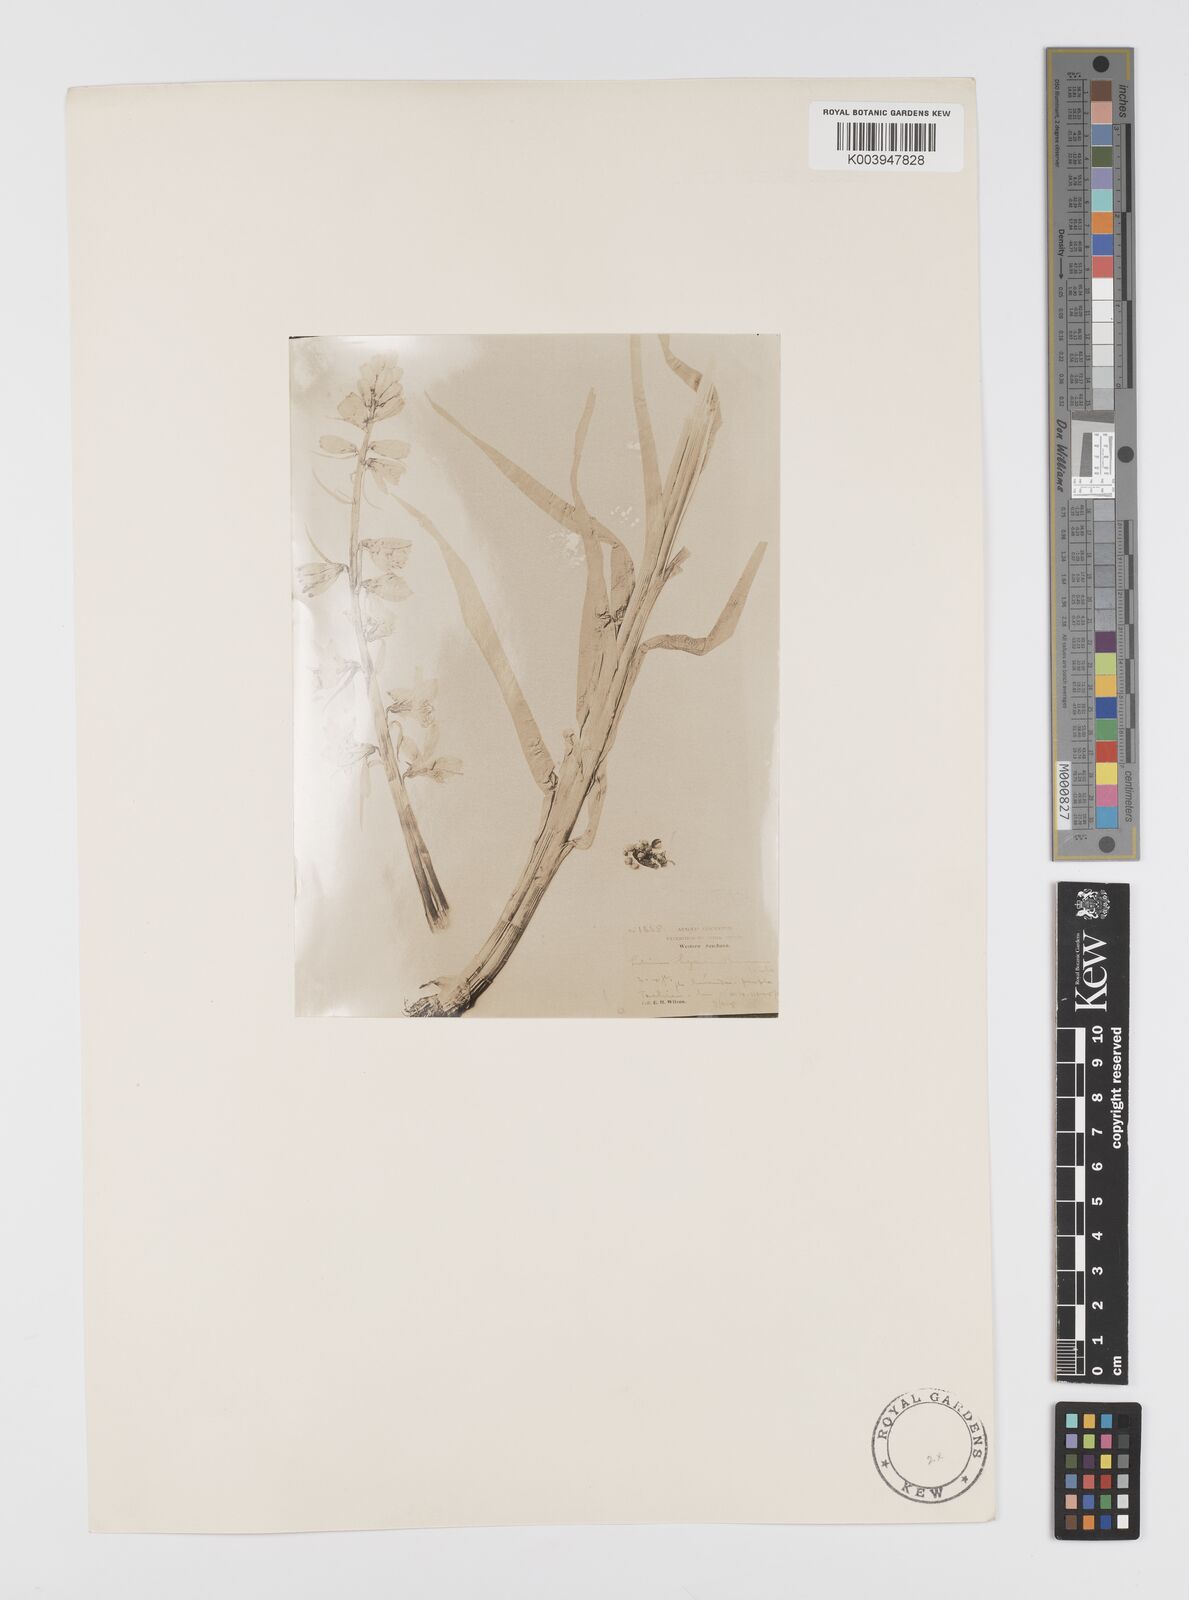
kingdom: Plantae
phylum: Tracheophyta
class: Liliopsida
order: Liliales
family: Liliaceae
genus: Notholirion
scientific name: Notholirion bulbuliferum
